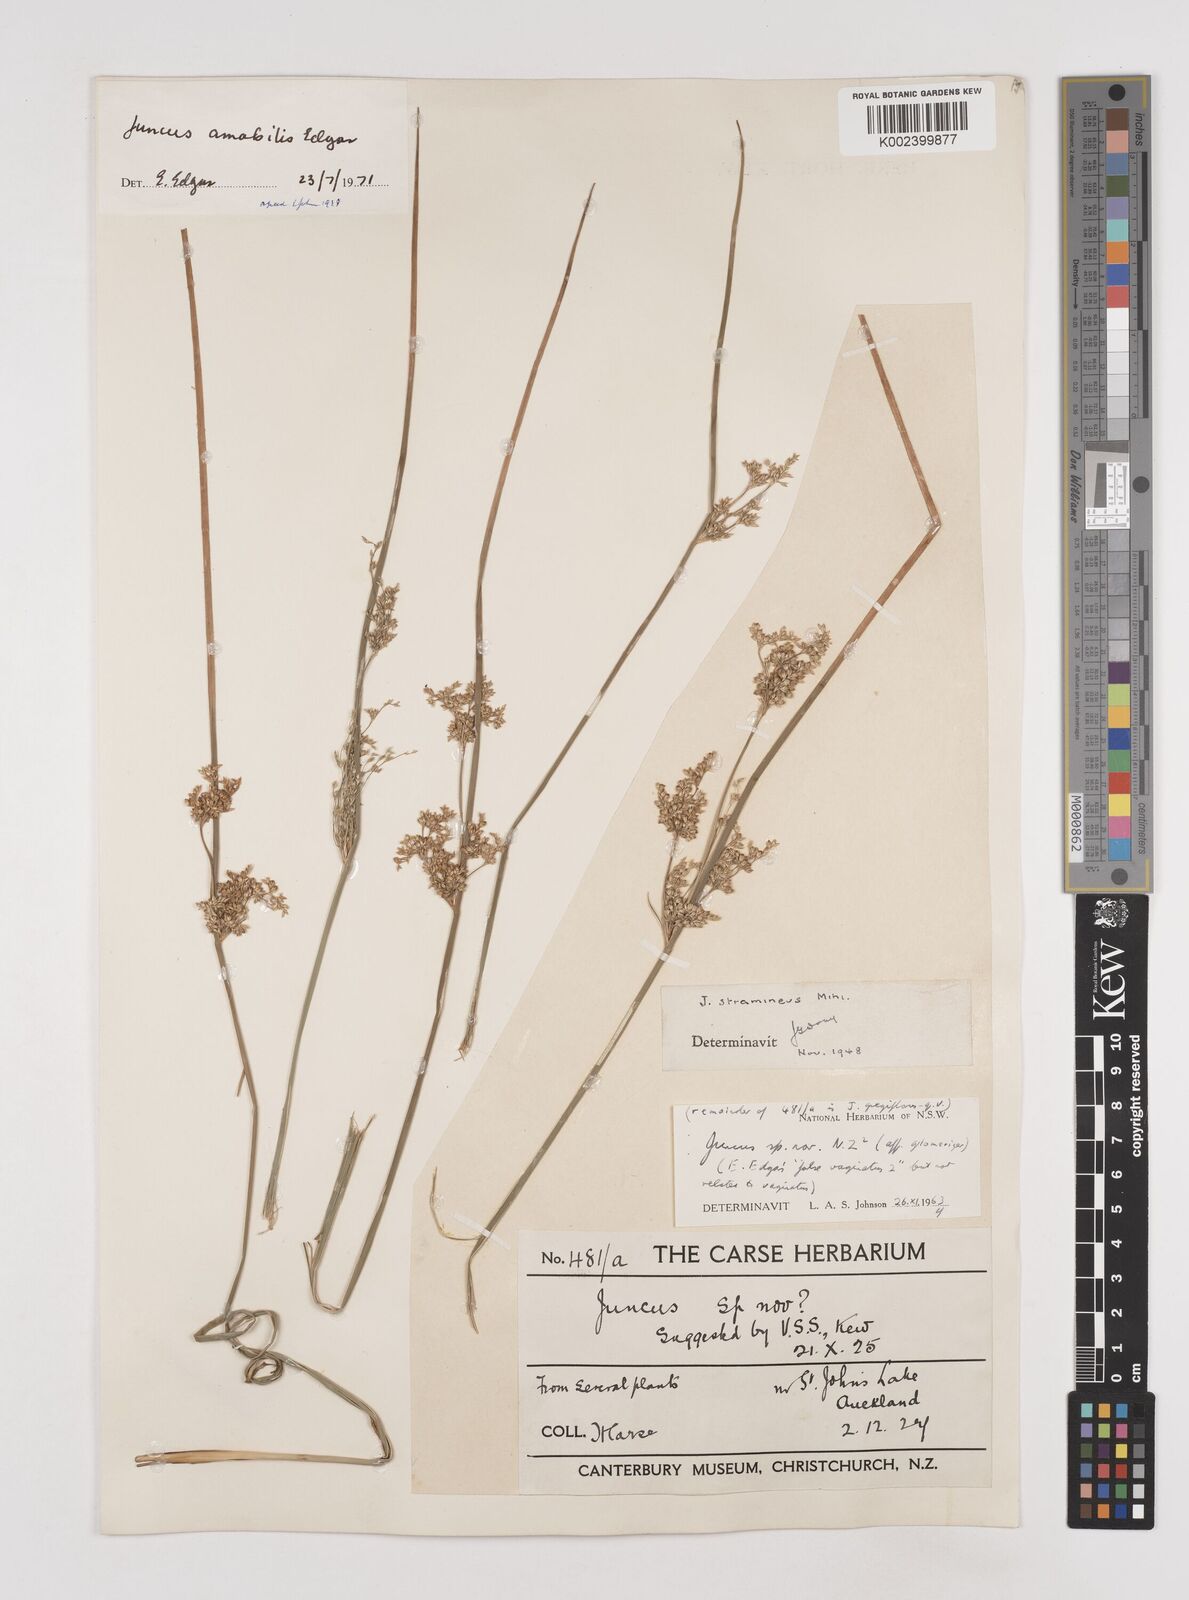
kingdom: Plantae
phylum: Tracheophyta
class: Liliopsida
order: Poales
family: Juncaceae
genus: Juncus
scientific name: Juncus amabilis
